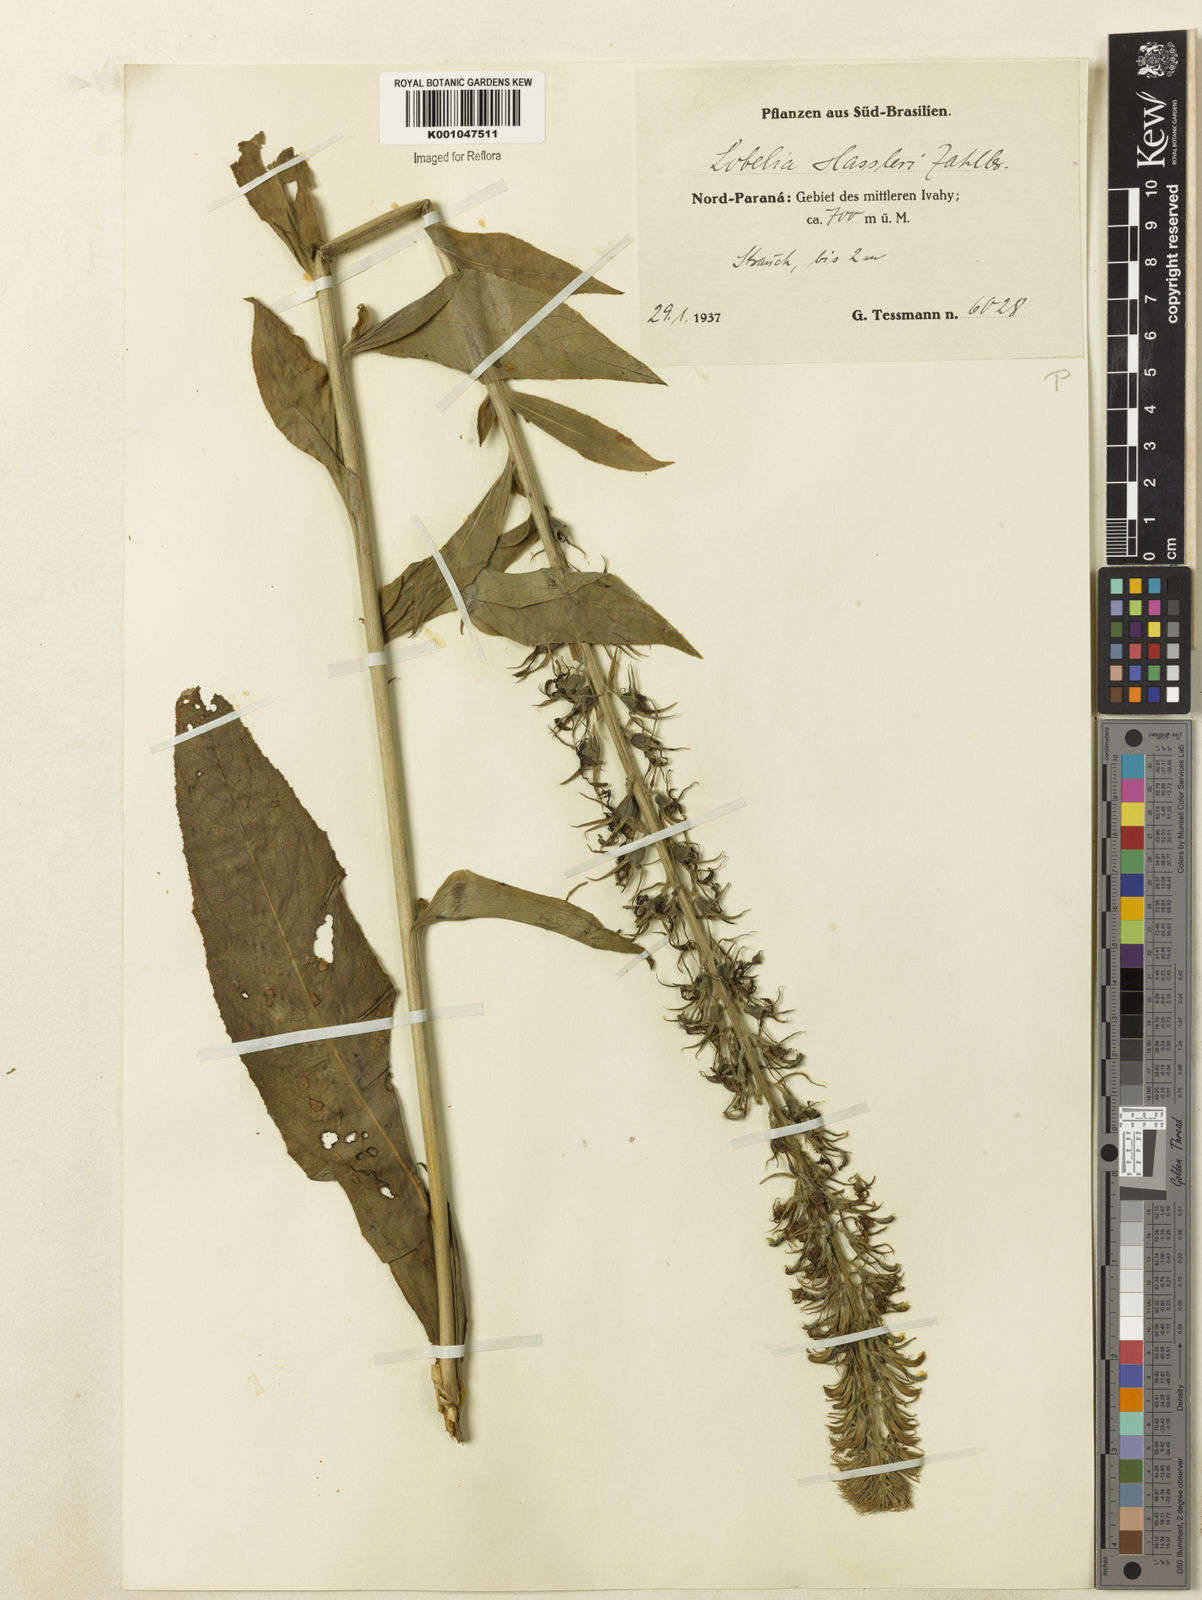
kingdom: Plantae
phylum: Tracheophyta
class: Magnoliopsida
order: Asterales
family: Campanulaceae
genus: Lobelia
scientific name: Lobelia hassleri
